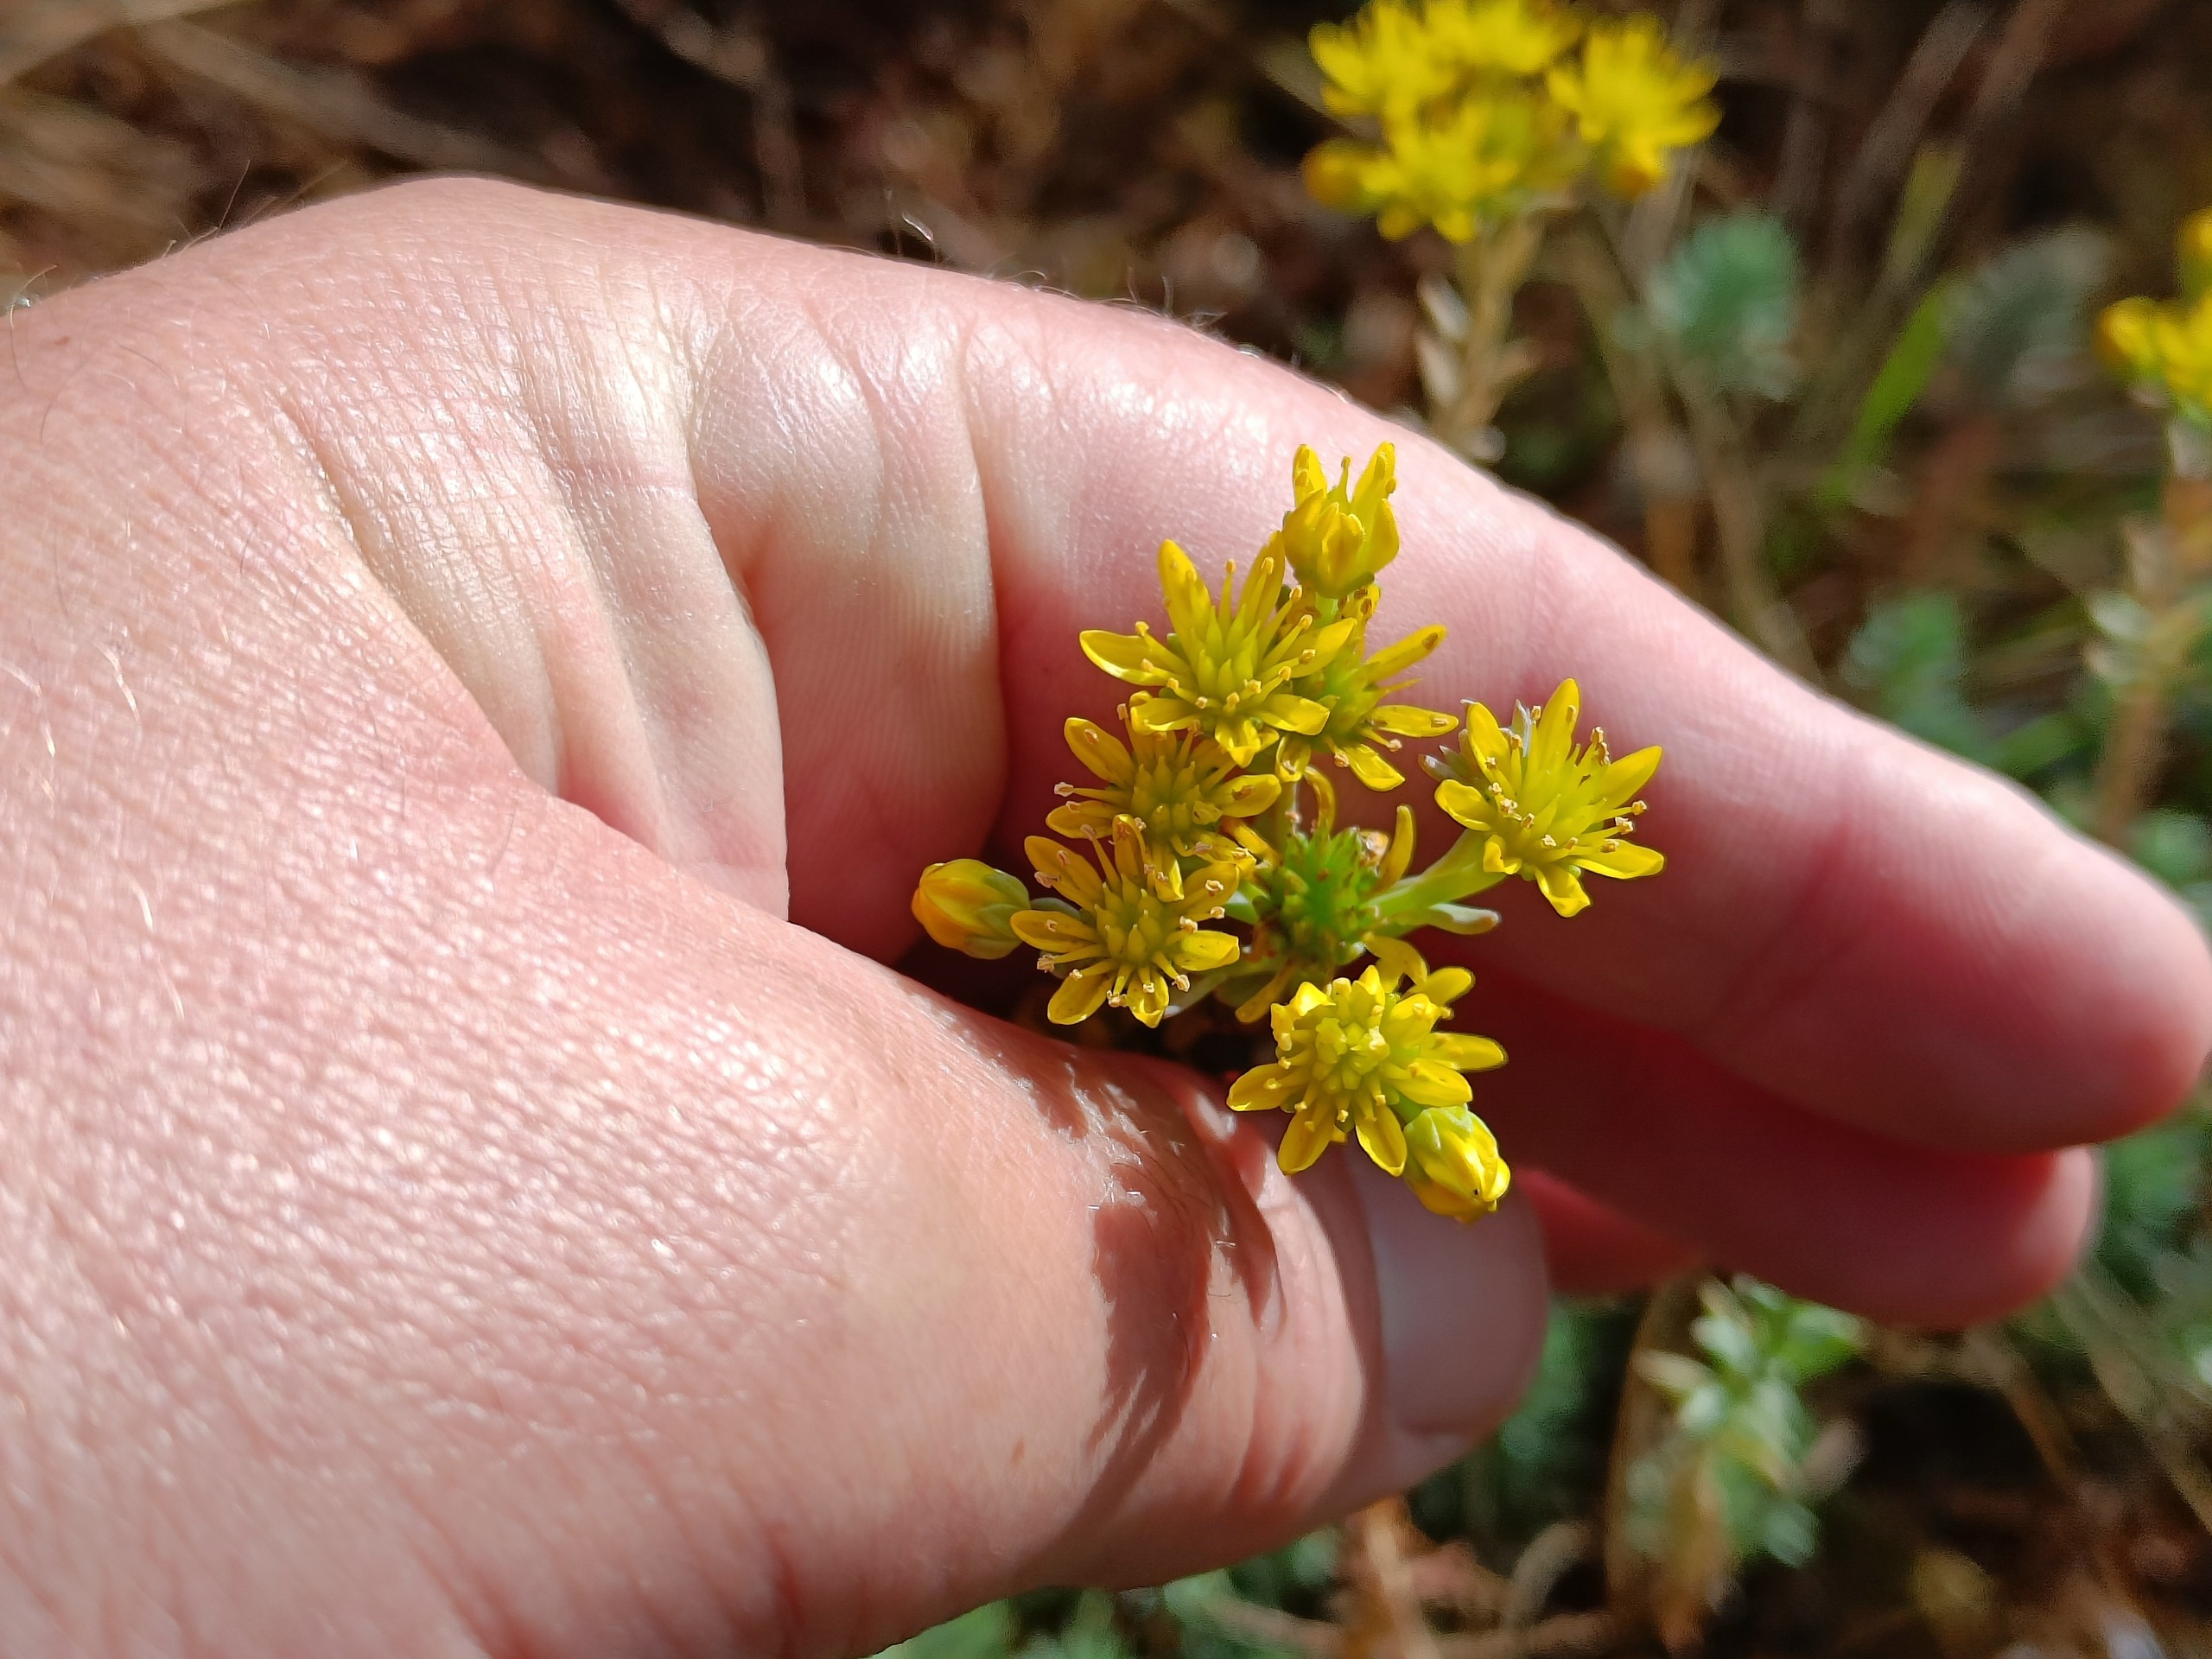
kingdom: Plantae
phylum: Tracheophyta
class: Magnoliopsida
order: Saxifragales
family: Crassulaceae
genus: Petrosedum
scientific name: Petrosedum forsterianum
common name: Fransk stenurt
